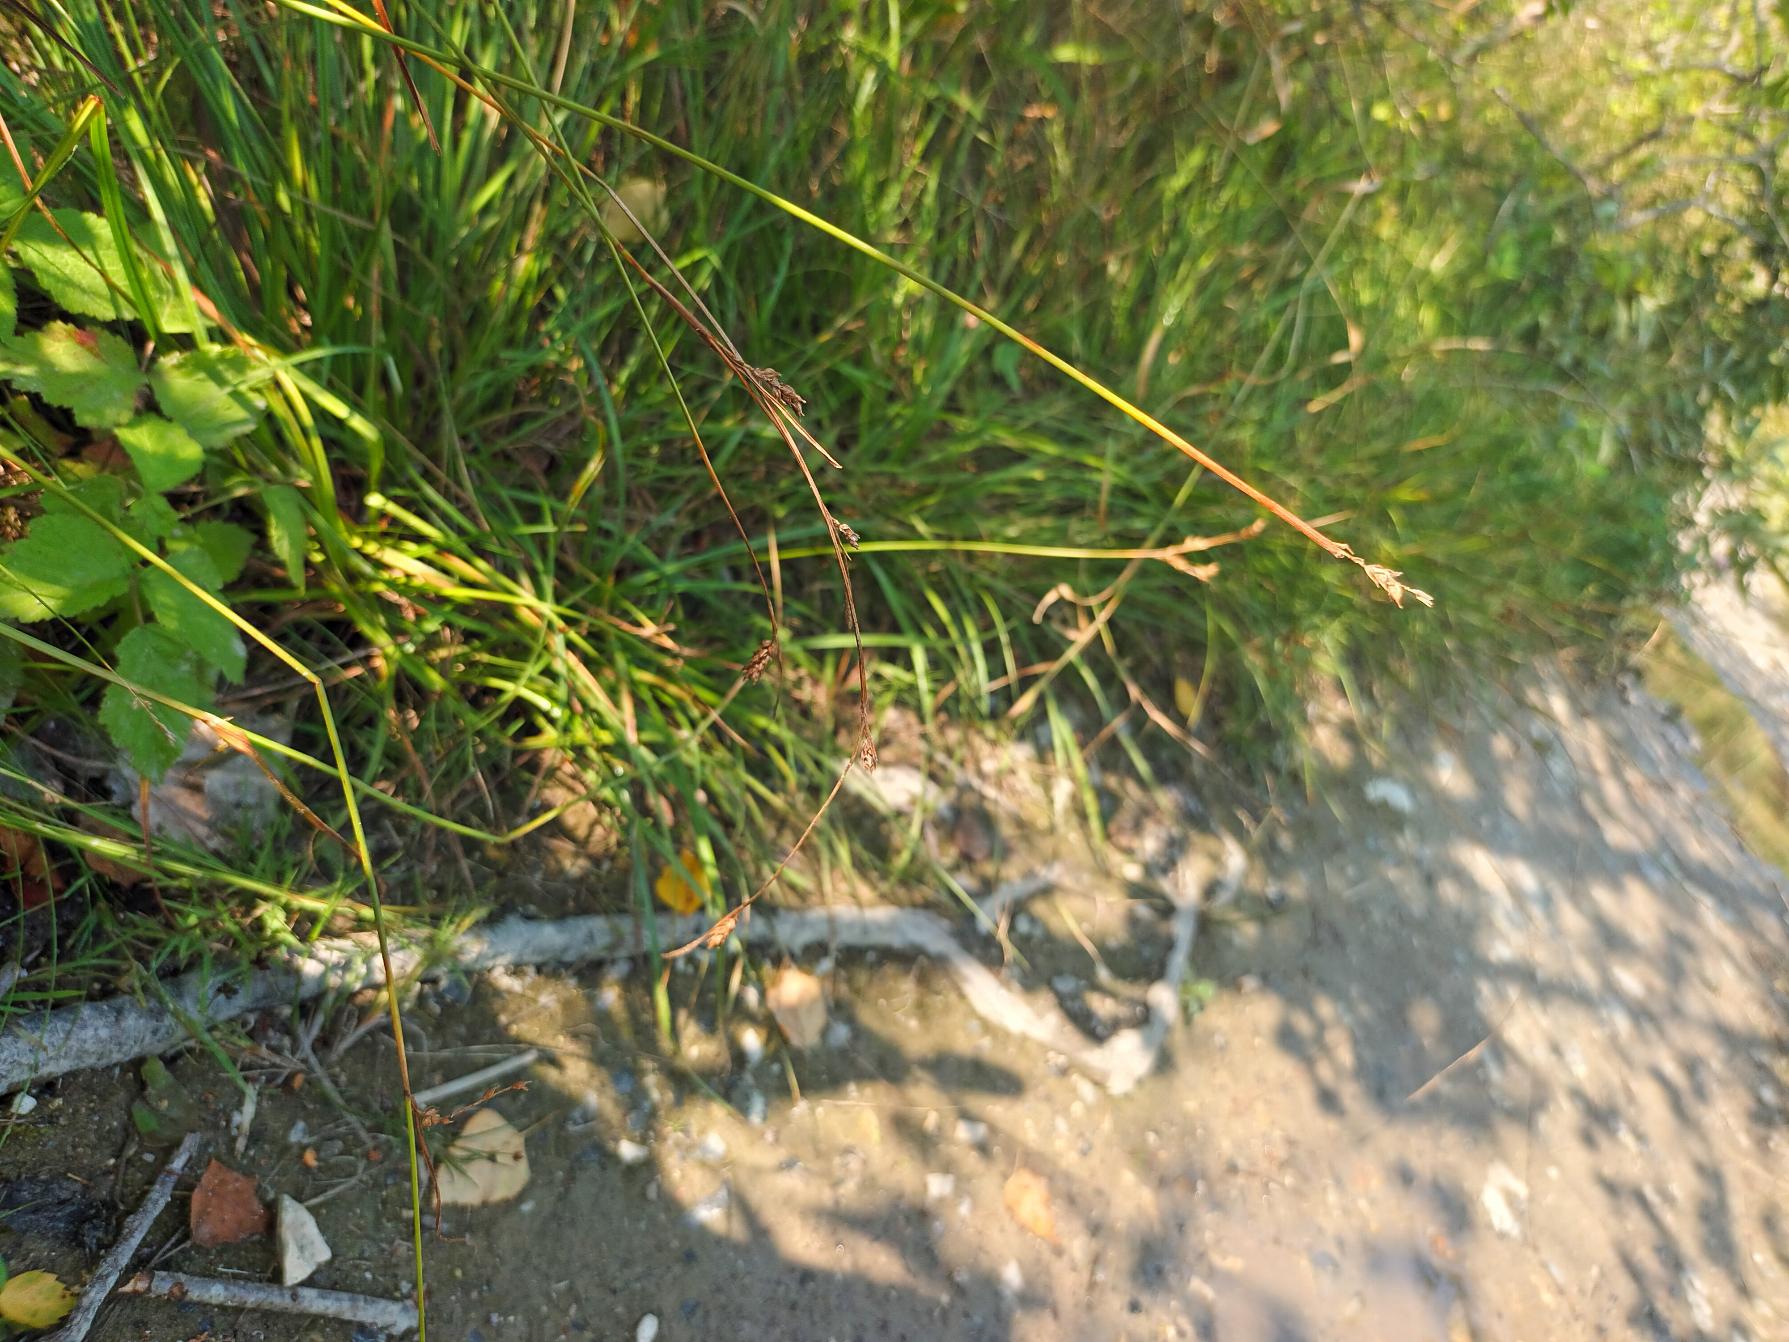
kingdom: Plantae
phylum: Tracheophyta
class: Liliopsida
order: Poales
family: Cyperaceae
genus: Carex
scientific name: Carex distans
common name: Fjernakset star
